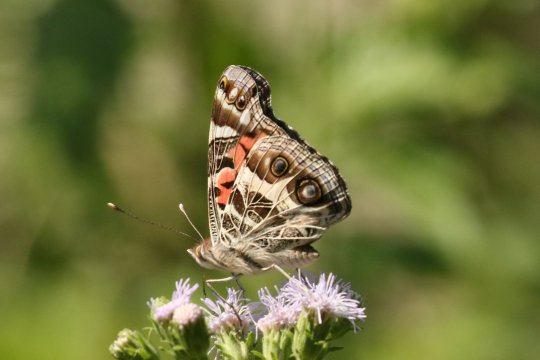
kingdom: Animalia
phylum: Arthropoda
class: Insecta
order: Lepidoptera
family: Nymphalidae
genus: Vanessa
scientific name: Vanessa virginiensis
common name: American Lady
